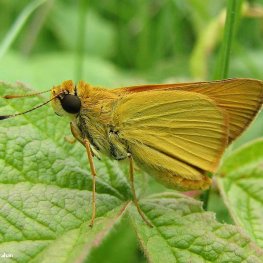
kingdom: Animalia
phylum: Arthropoda
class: Insecta
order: Lepidoptera
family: Hesperiidae
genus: Atrytone
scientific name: Atrytone delaware
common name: Delaware Skipper
